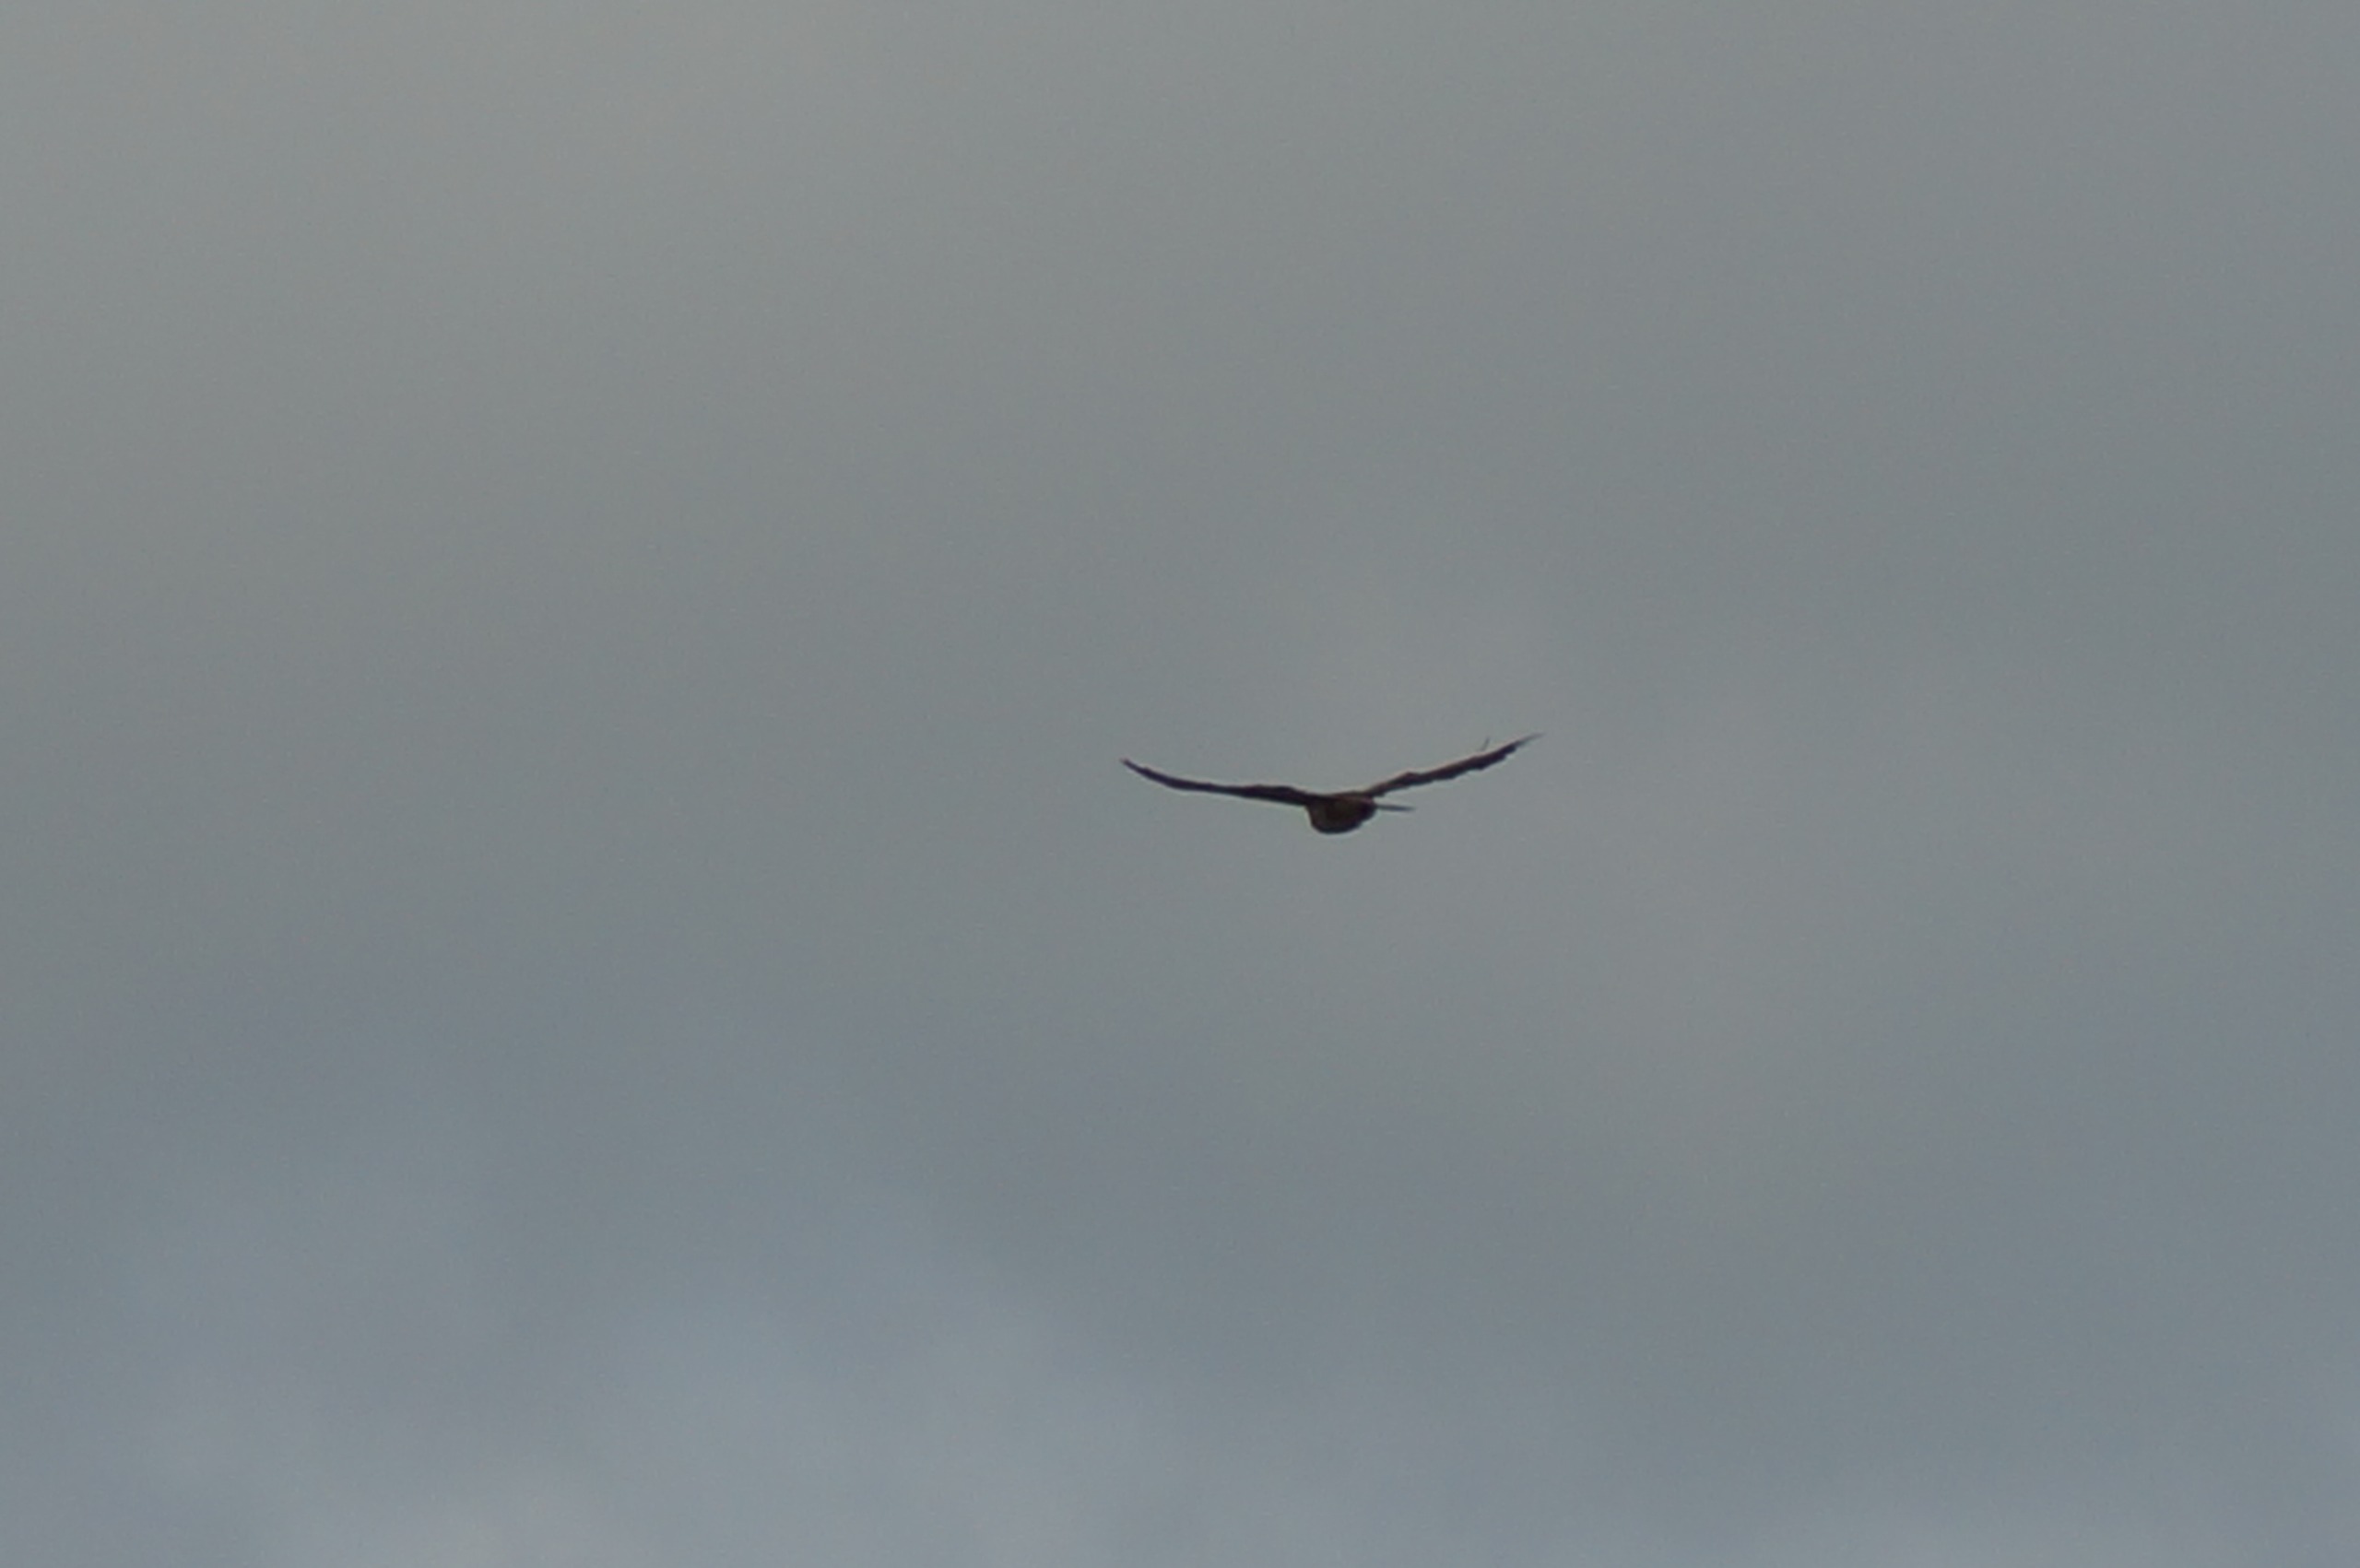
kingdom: Animalia
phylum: Chordata
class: Aves
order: Accipitriformes
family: Accipitridae
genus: Buteo
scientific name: Buteo buteo
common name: Musvåge
